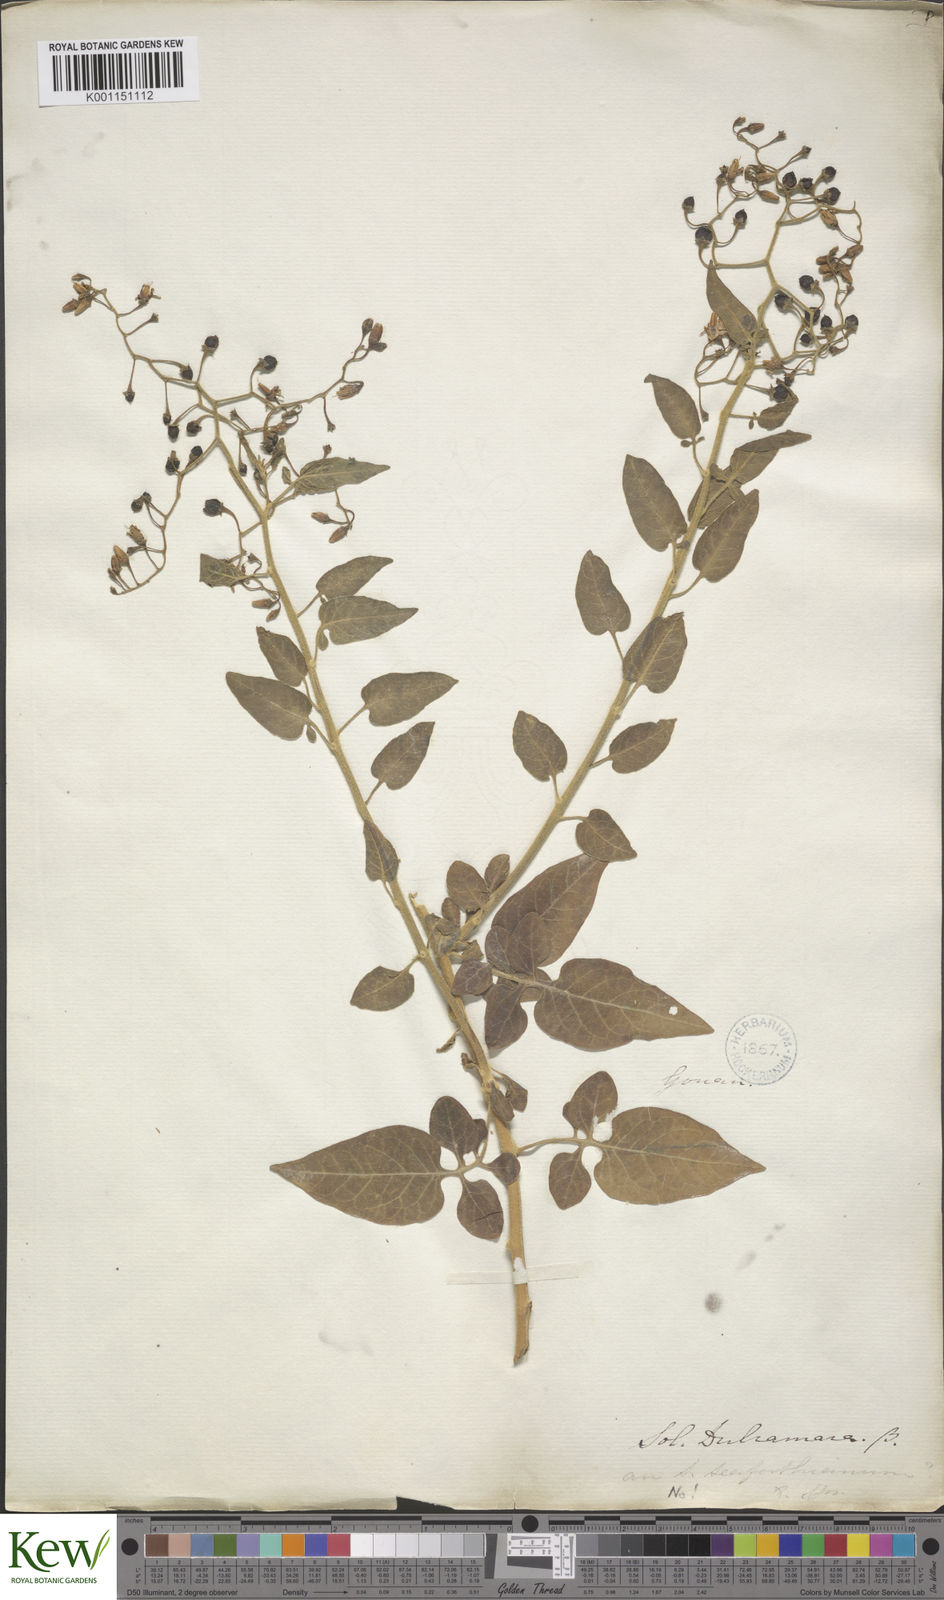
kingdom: Plantae
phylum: Tracheophyta
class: Magnoliopsida
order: Solanales
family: Solanaceae
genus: Solanum
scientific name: Solanum dulcamara
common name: Climbing nightshade
